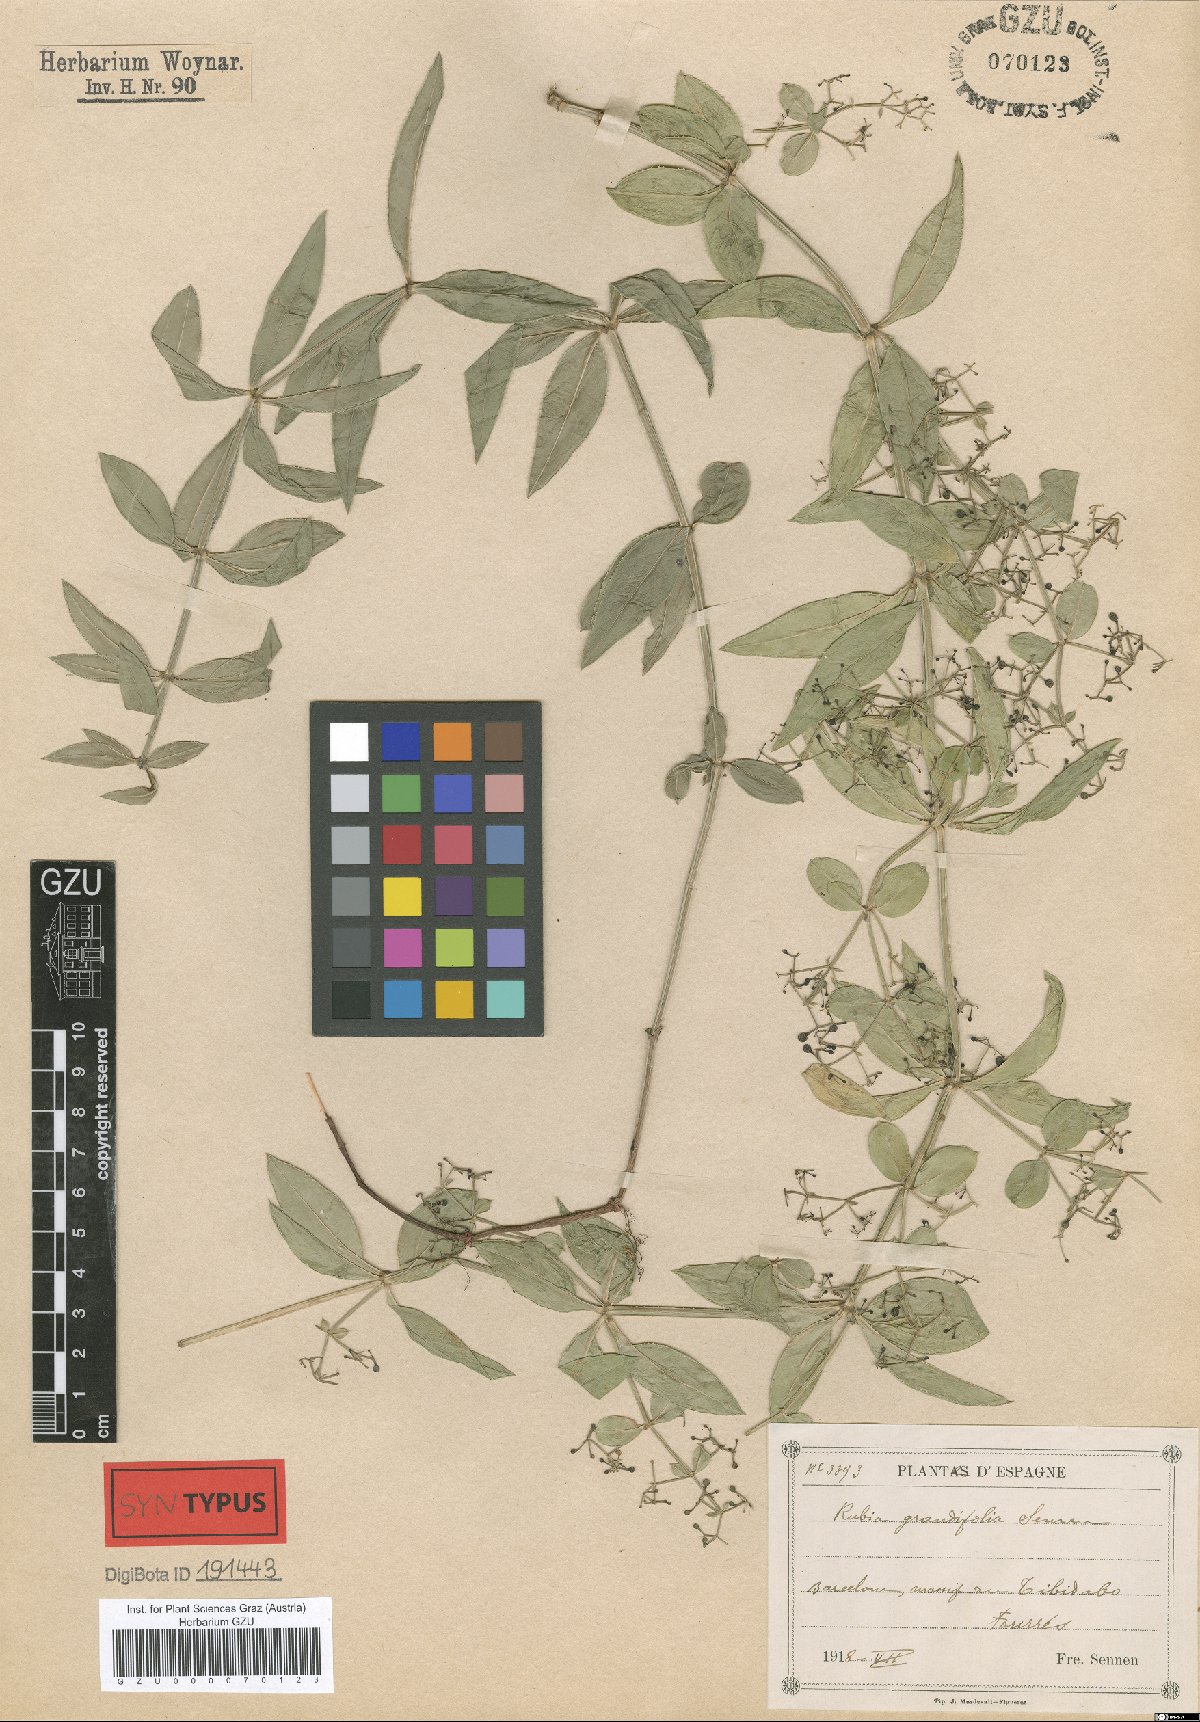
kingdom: Plantae
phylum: Tracheophyta
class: Magnoliopsida
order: Gentianales
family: Rubiaceae
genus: Rubia
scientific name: Rubia peregrina
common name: Wild madder
